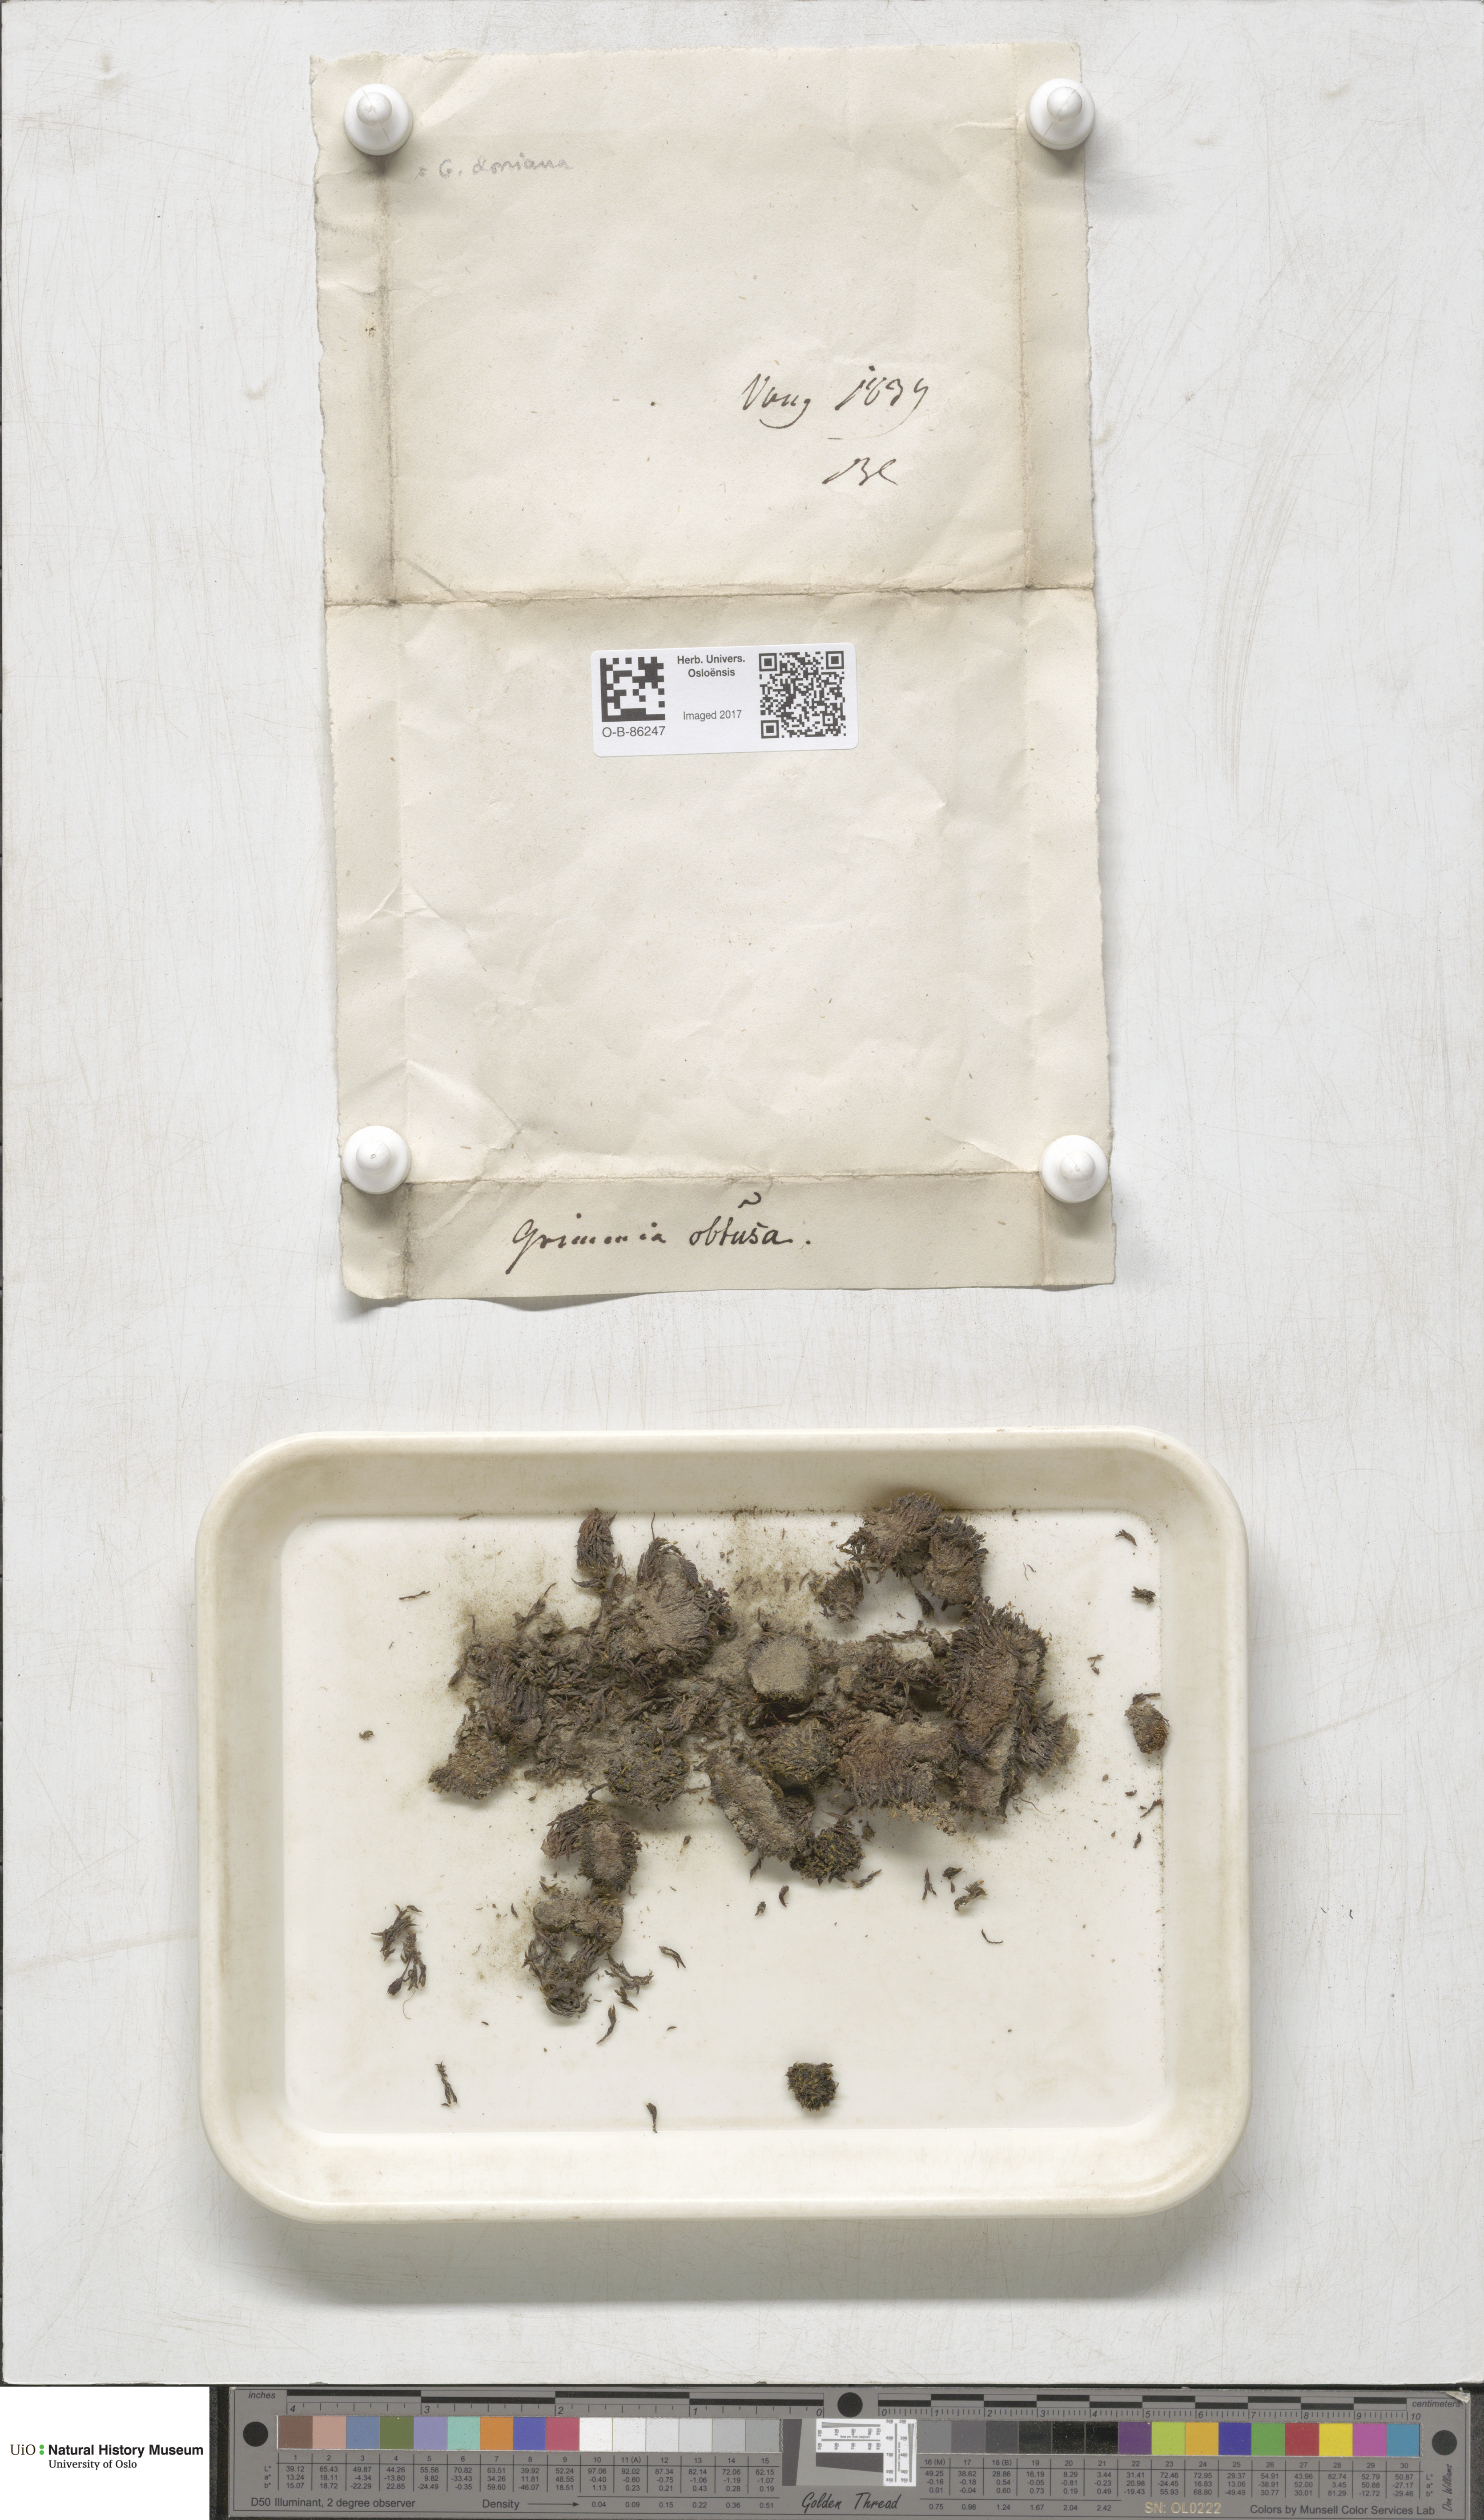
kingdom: Plantae
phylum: Bryophyta
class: Bryopsida
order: Grimmiales
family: Grimmiaceae
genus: Grimmia
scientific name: Grimmia donniana
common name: Donn's grimmia
